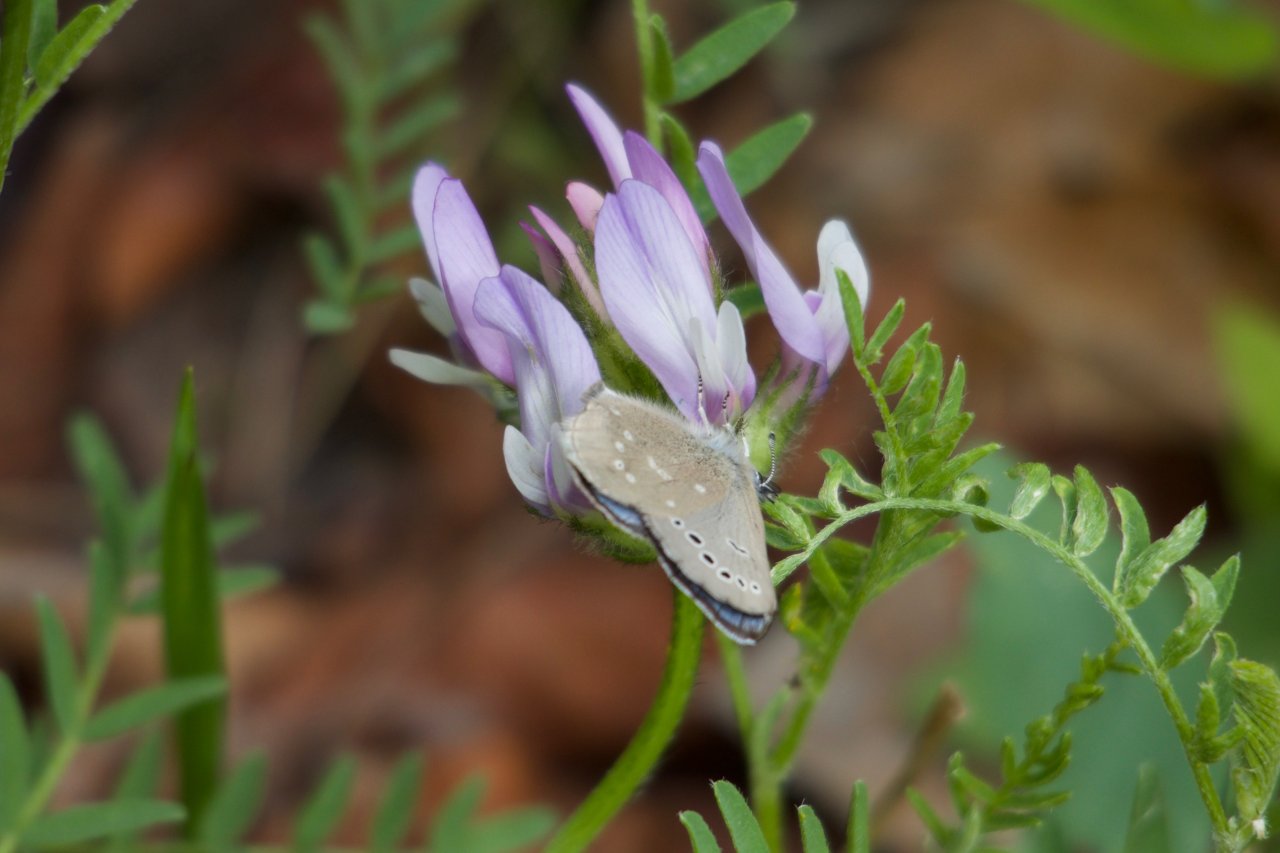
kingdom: Animalia
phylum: Arthropoda
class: Insecta
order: Lepidoptera
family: Lycaenidae
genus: Glaucopsyche
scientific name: Glaucopsyche lygdamus
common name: Silvery Blue
